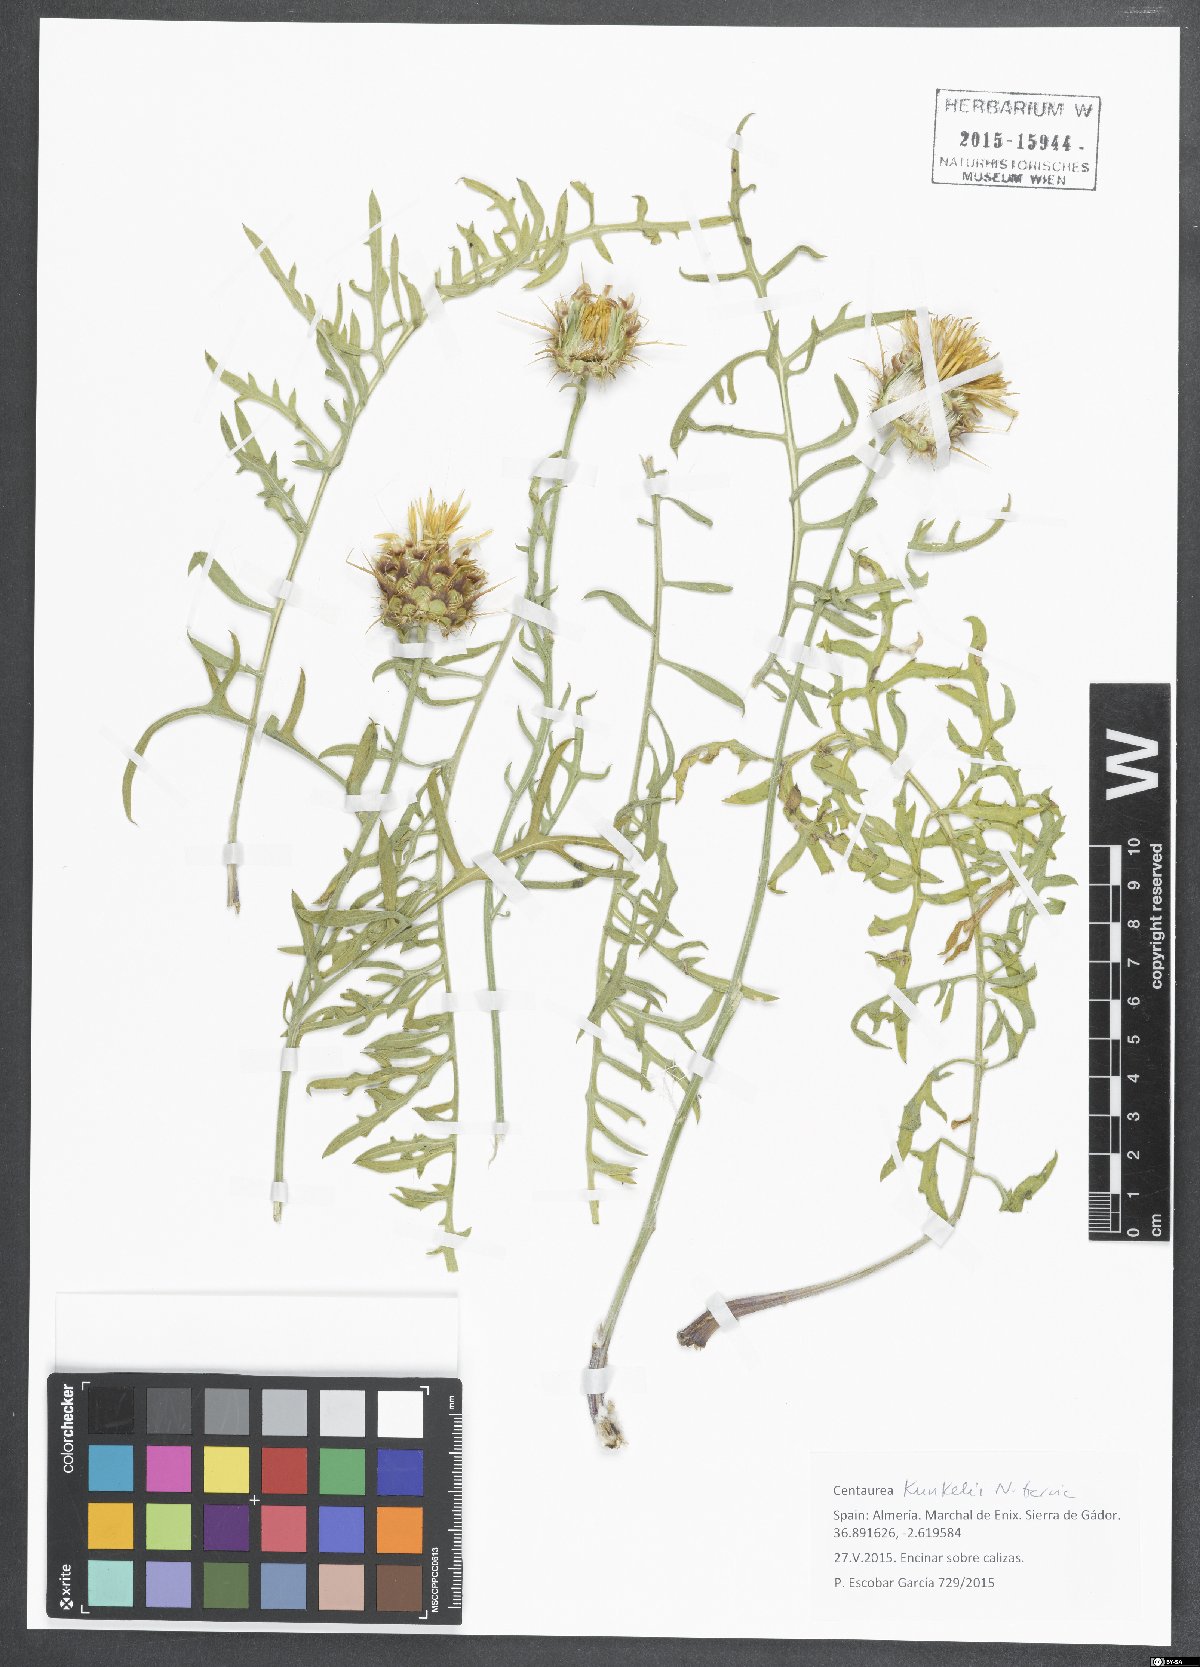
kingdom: Plantae
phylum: Tracheophyta
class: Magnoliopsida
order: Asterales
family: Asteraceae
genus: Centaurea
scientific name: Centaurea kunkelii
